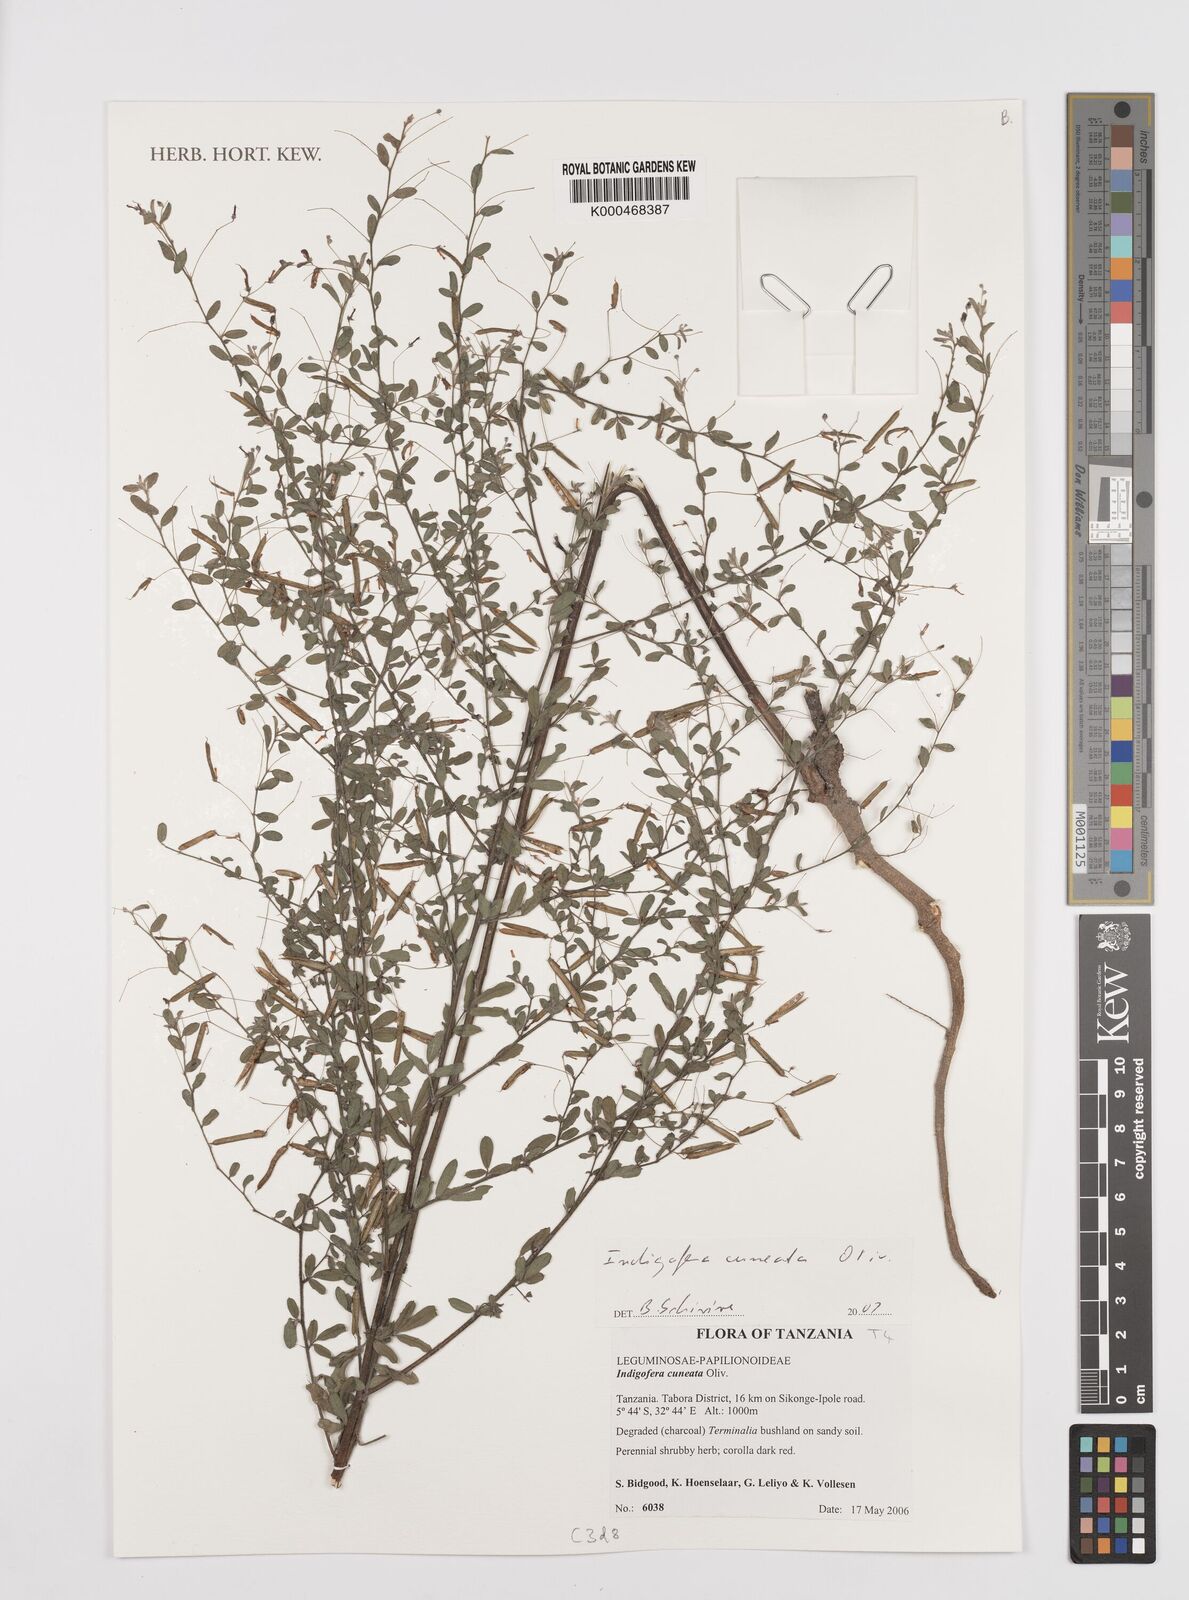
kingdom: Plantae
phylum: Tracheophyta
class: Magnoliopsida
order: Fabales
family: Fabaceae
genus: Indigofera
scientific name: Indigofera
